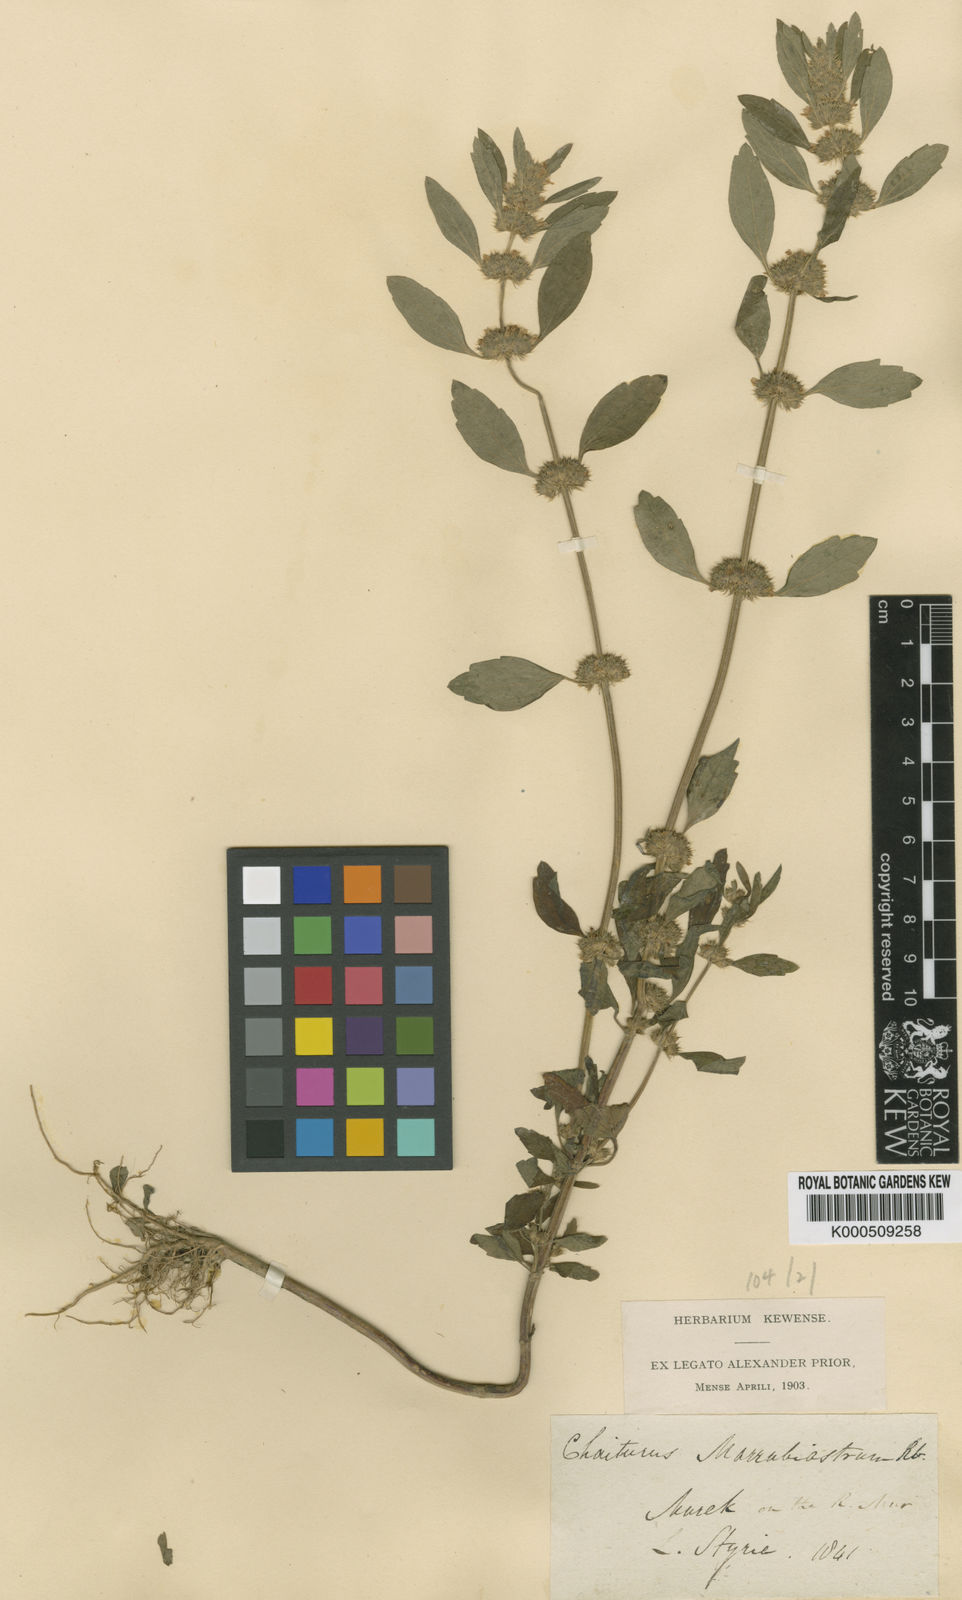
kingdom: Plantae
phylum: Tracheophyta
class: Magnoliopsida
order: Lamiales
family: Lamiaceae
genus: Chaiturus
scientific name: Chaiturus
